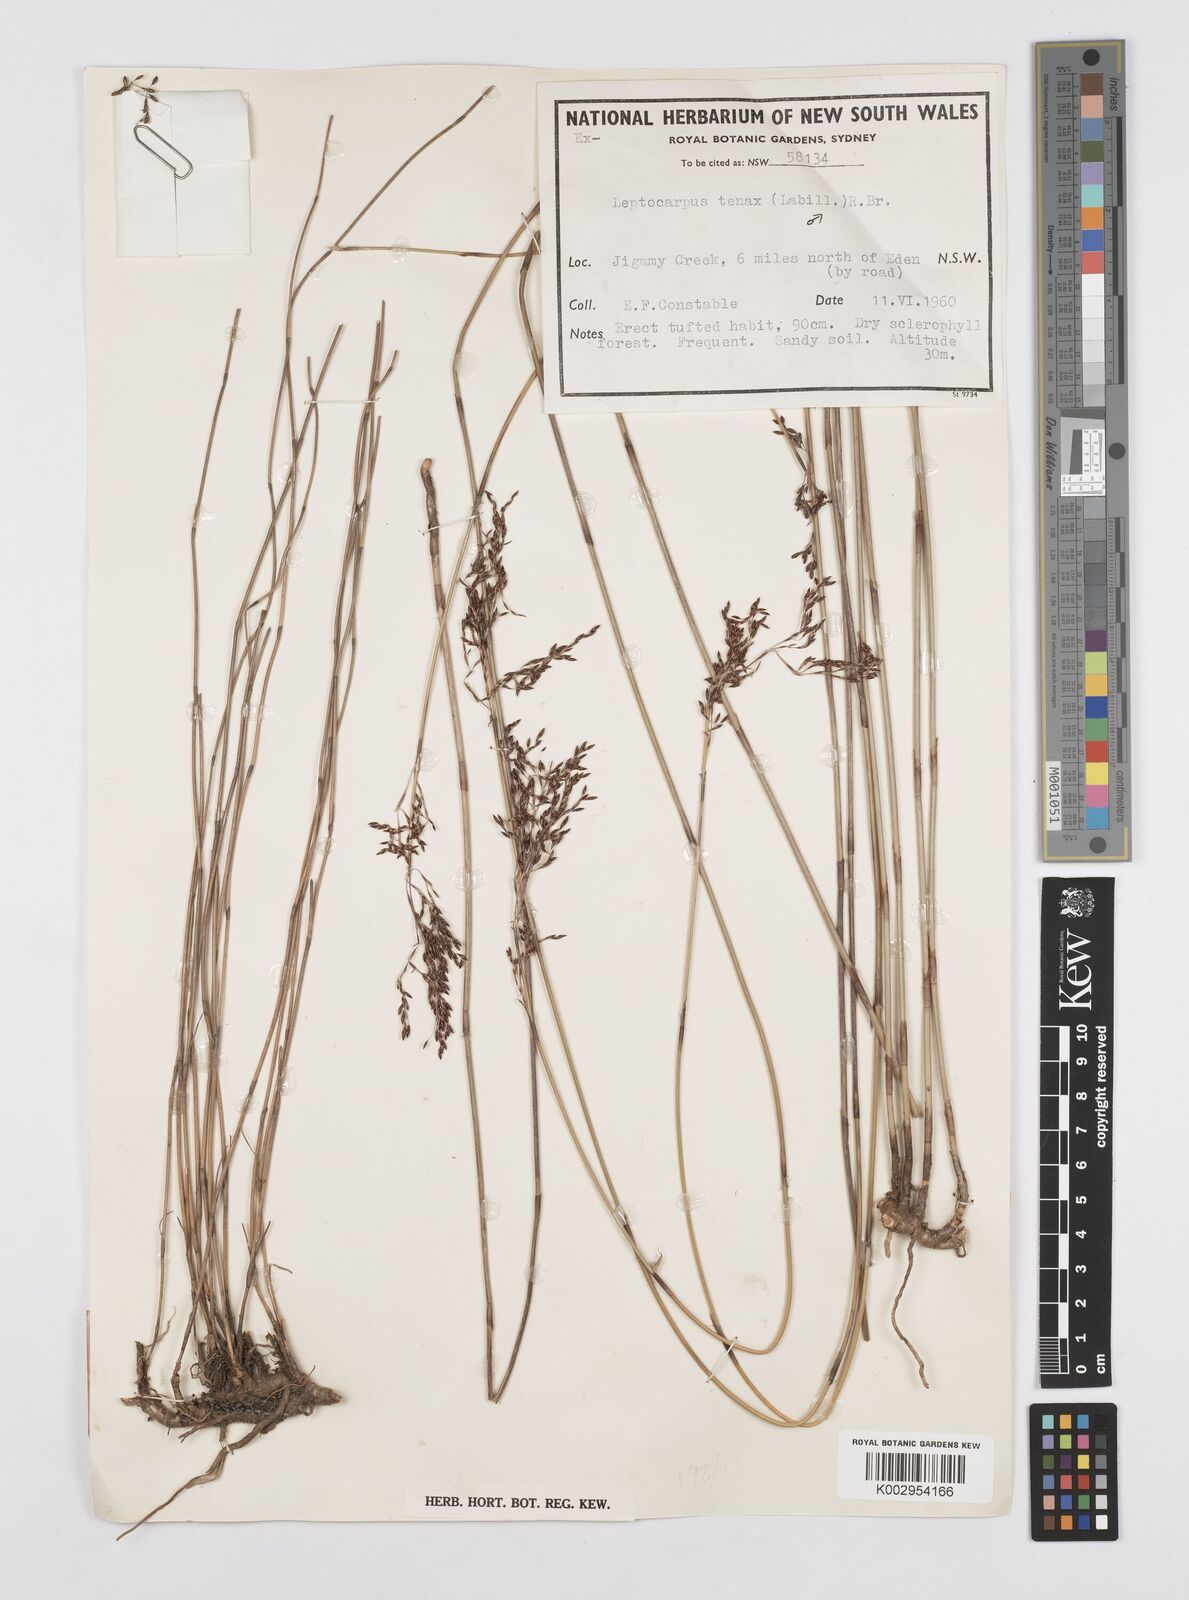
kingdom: Plantae
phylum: Tracheophyta
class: Liliopsida
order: Poales
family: Restionaceae
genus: Leptocarpus
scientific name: Leptocarpus tenax
